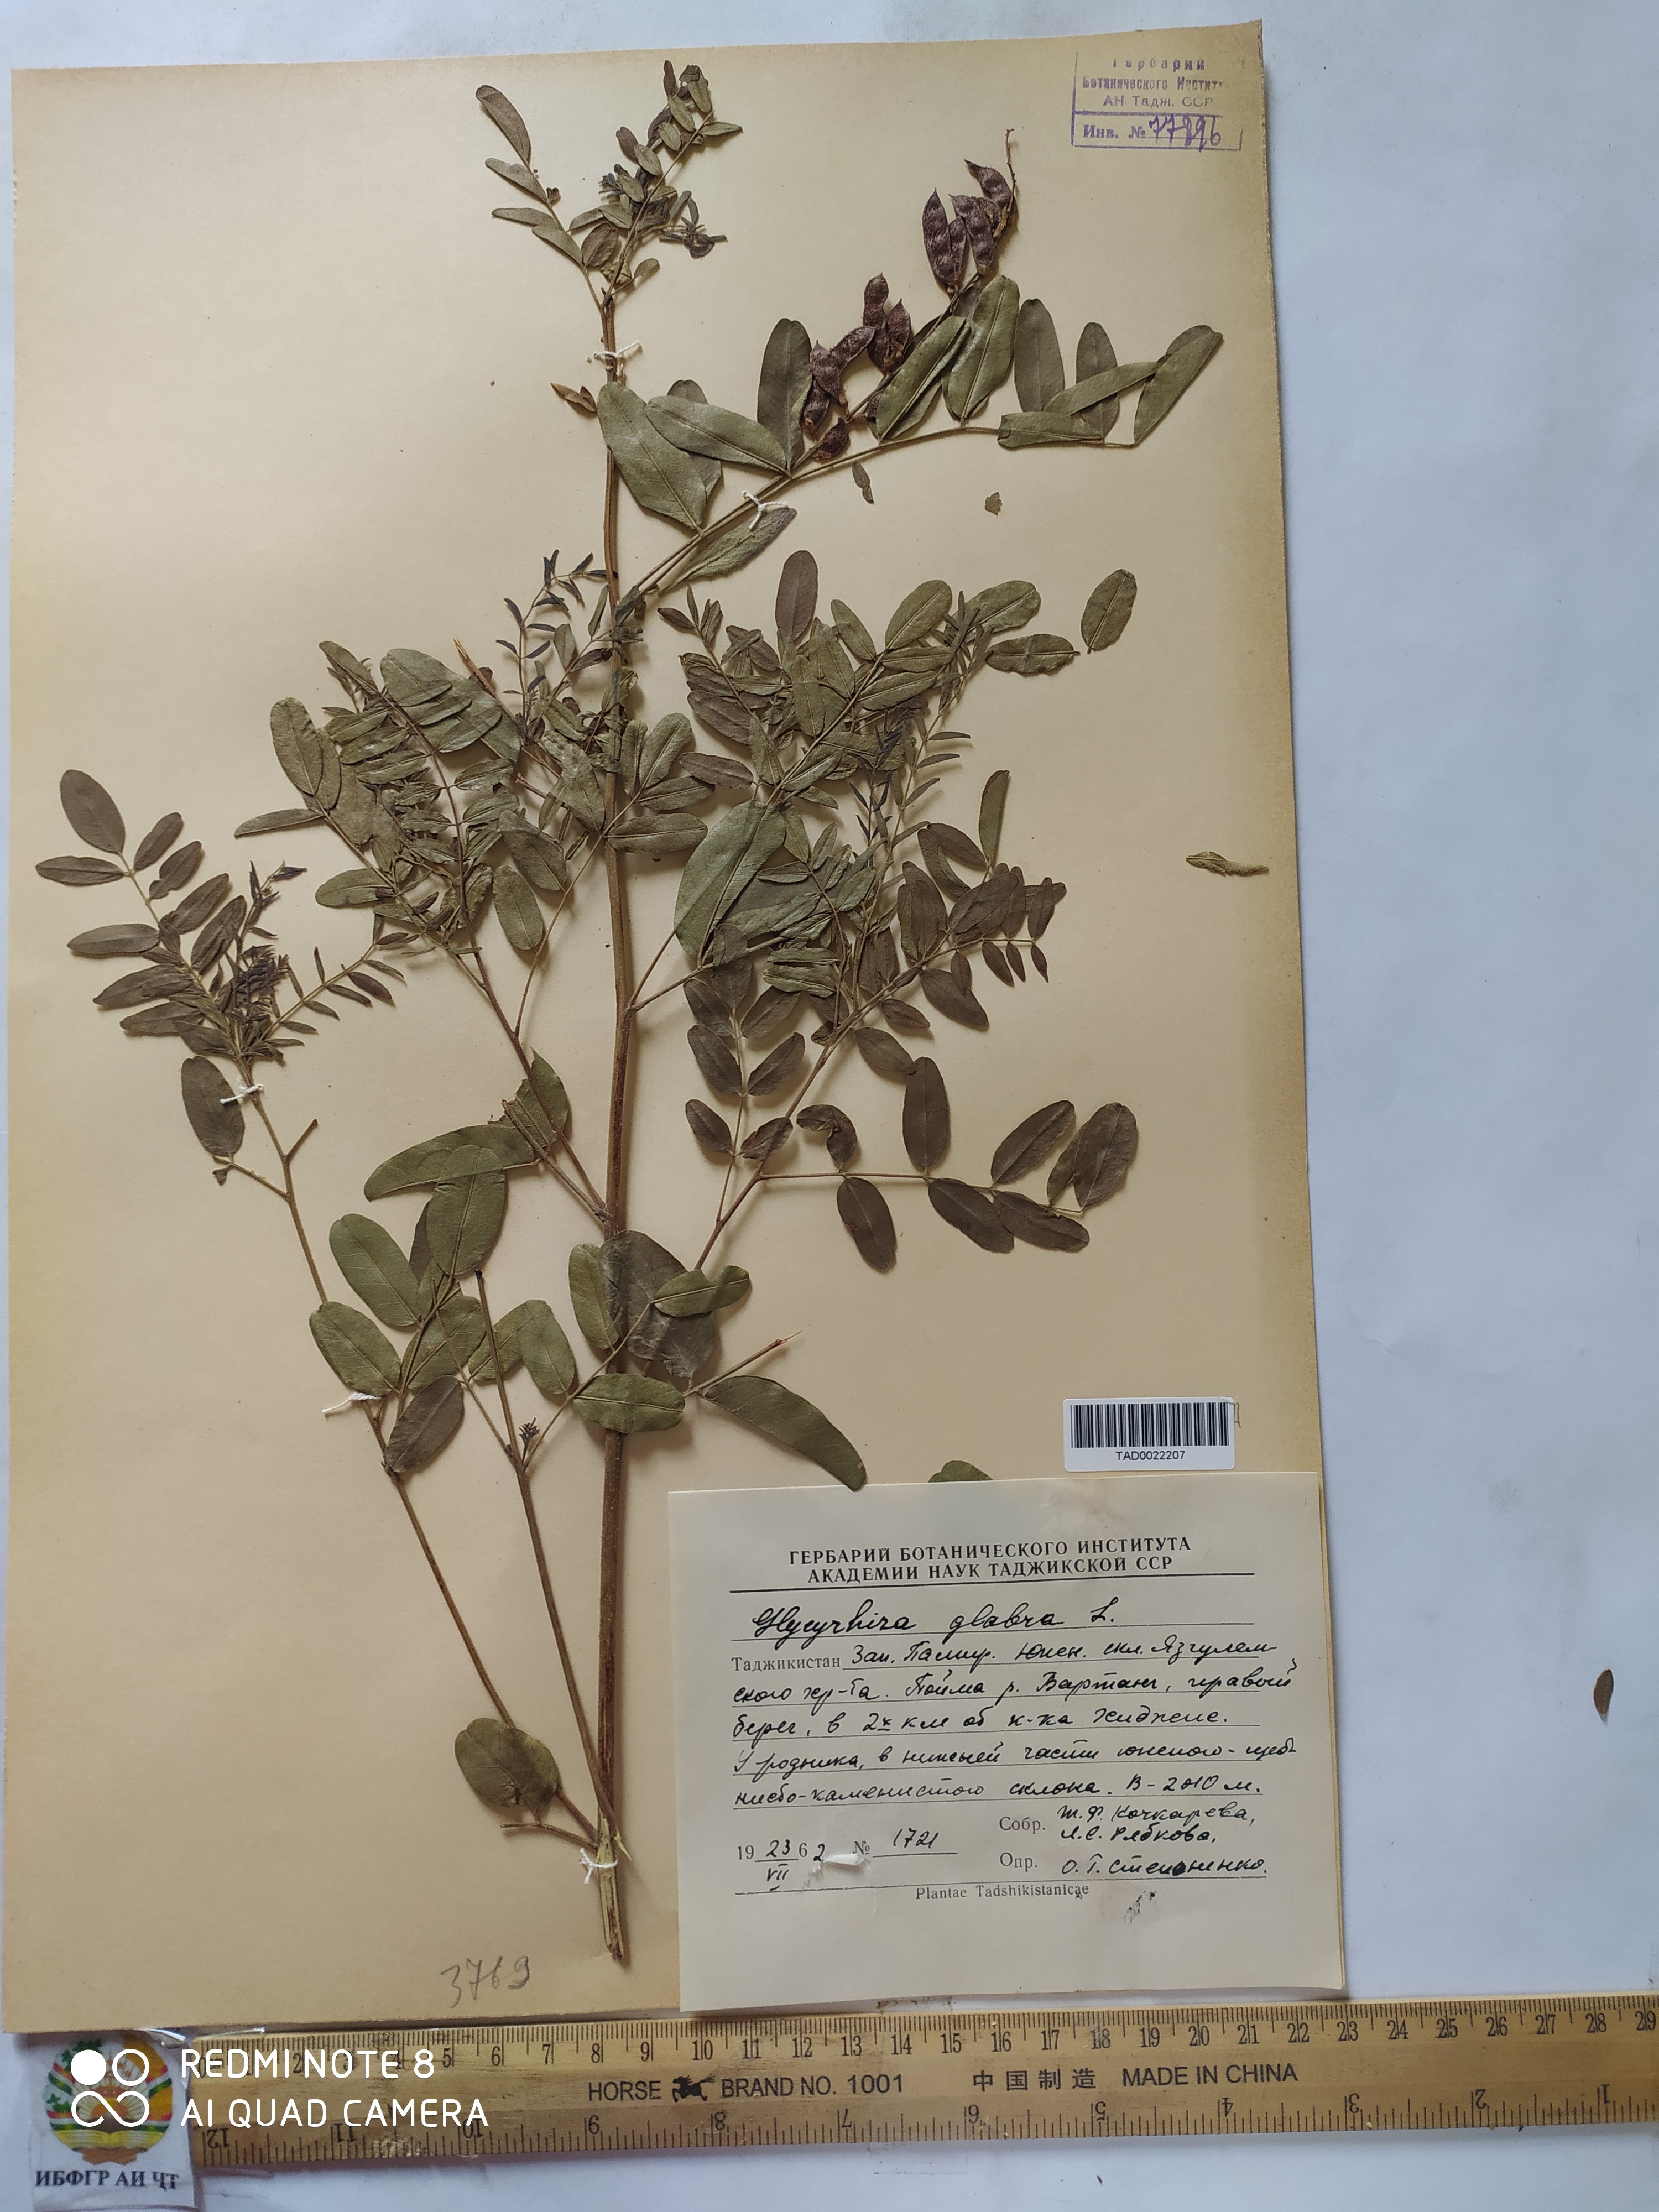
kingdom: Plantae
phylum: Tracheophyta
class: Magnoliopsida
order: Fabales
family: Fabaceae
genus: Glycyrrhiza
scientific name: Glycyrrhiza glabra
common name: Liquorice
